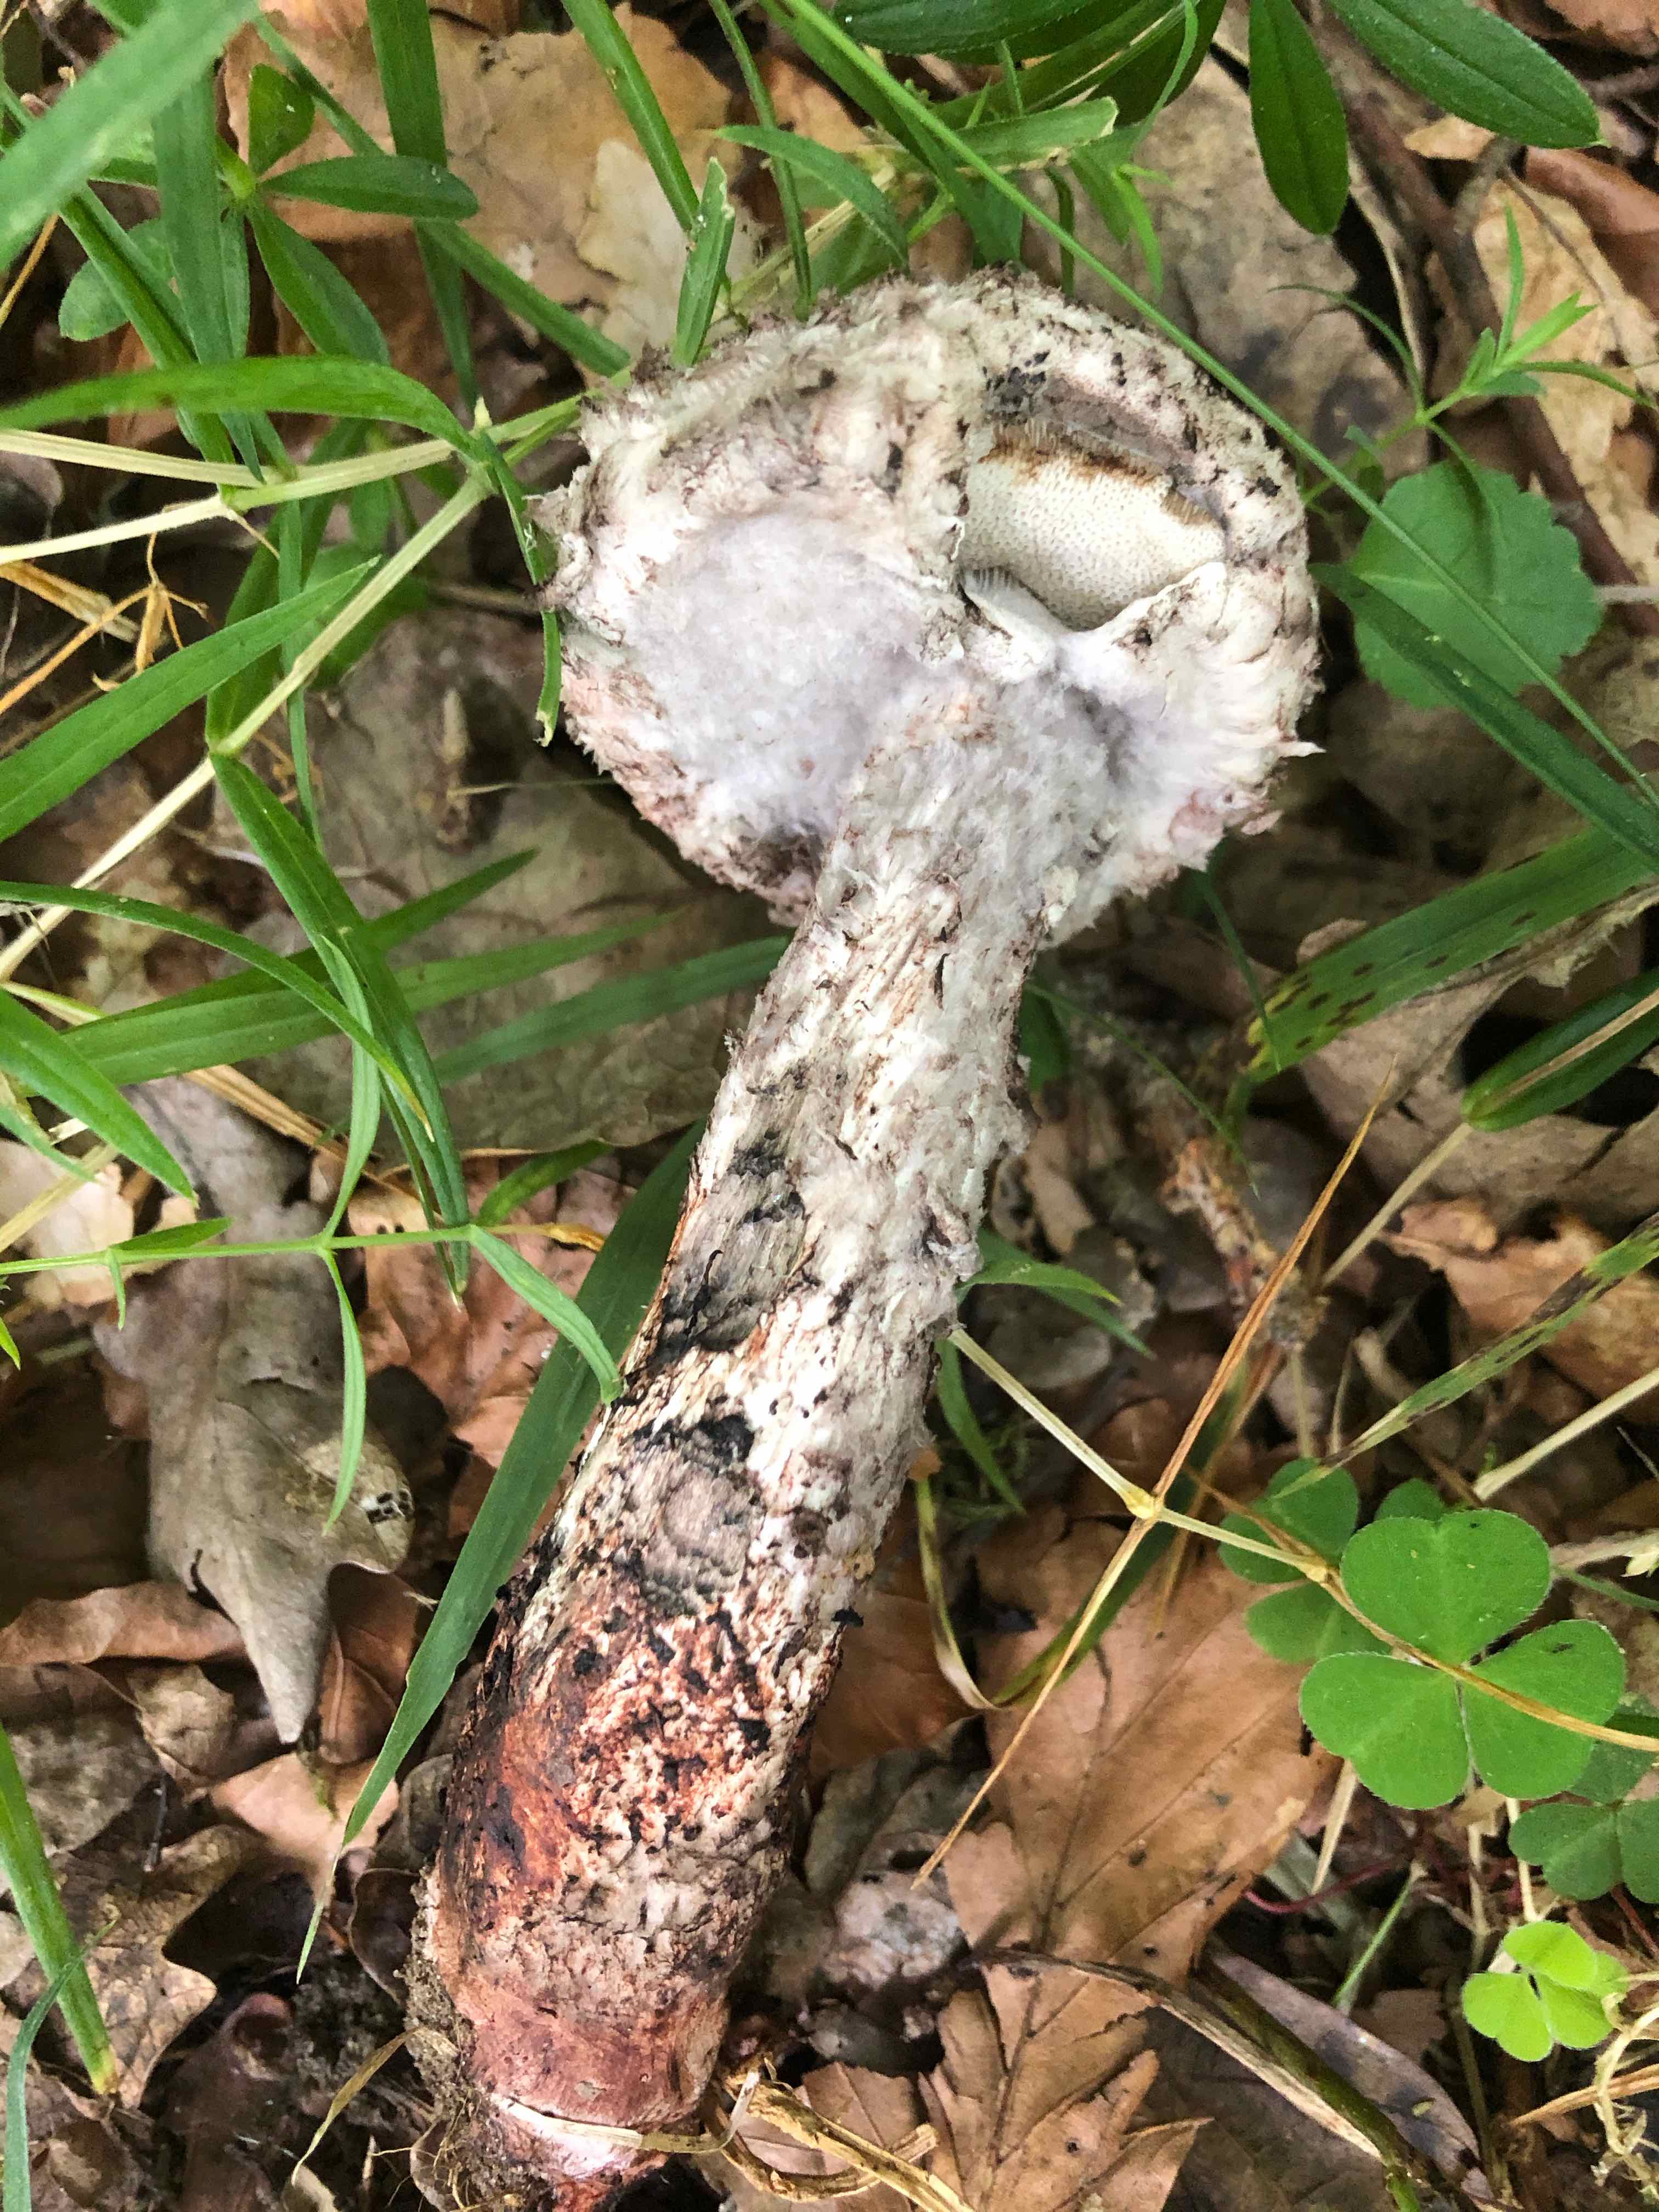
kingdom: Fungi
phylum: Basidiomycota
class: Agaricomycetes
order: Boletales
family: Boletaceae
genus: Strobilomyces
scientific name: Strobilomyces strobilaceus
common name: koglerørhat
